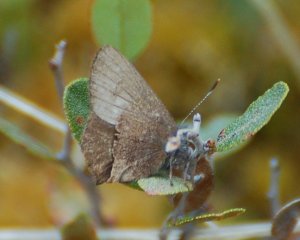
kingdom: Animalia
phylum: Arthropoda
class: Insecta
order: Lepidoptera
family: Lycaenidae
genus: Incisalia
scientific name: Incisalia irioides
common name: Brown Elfin
